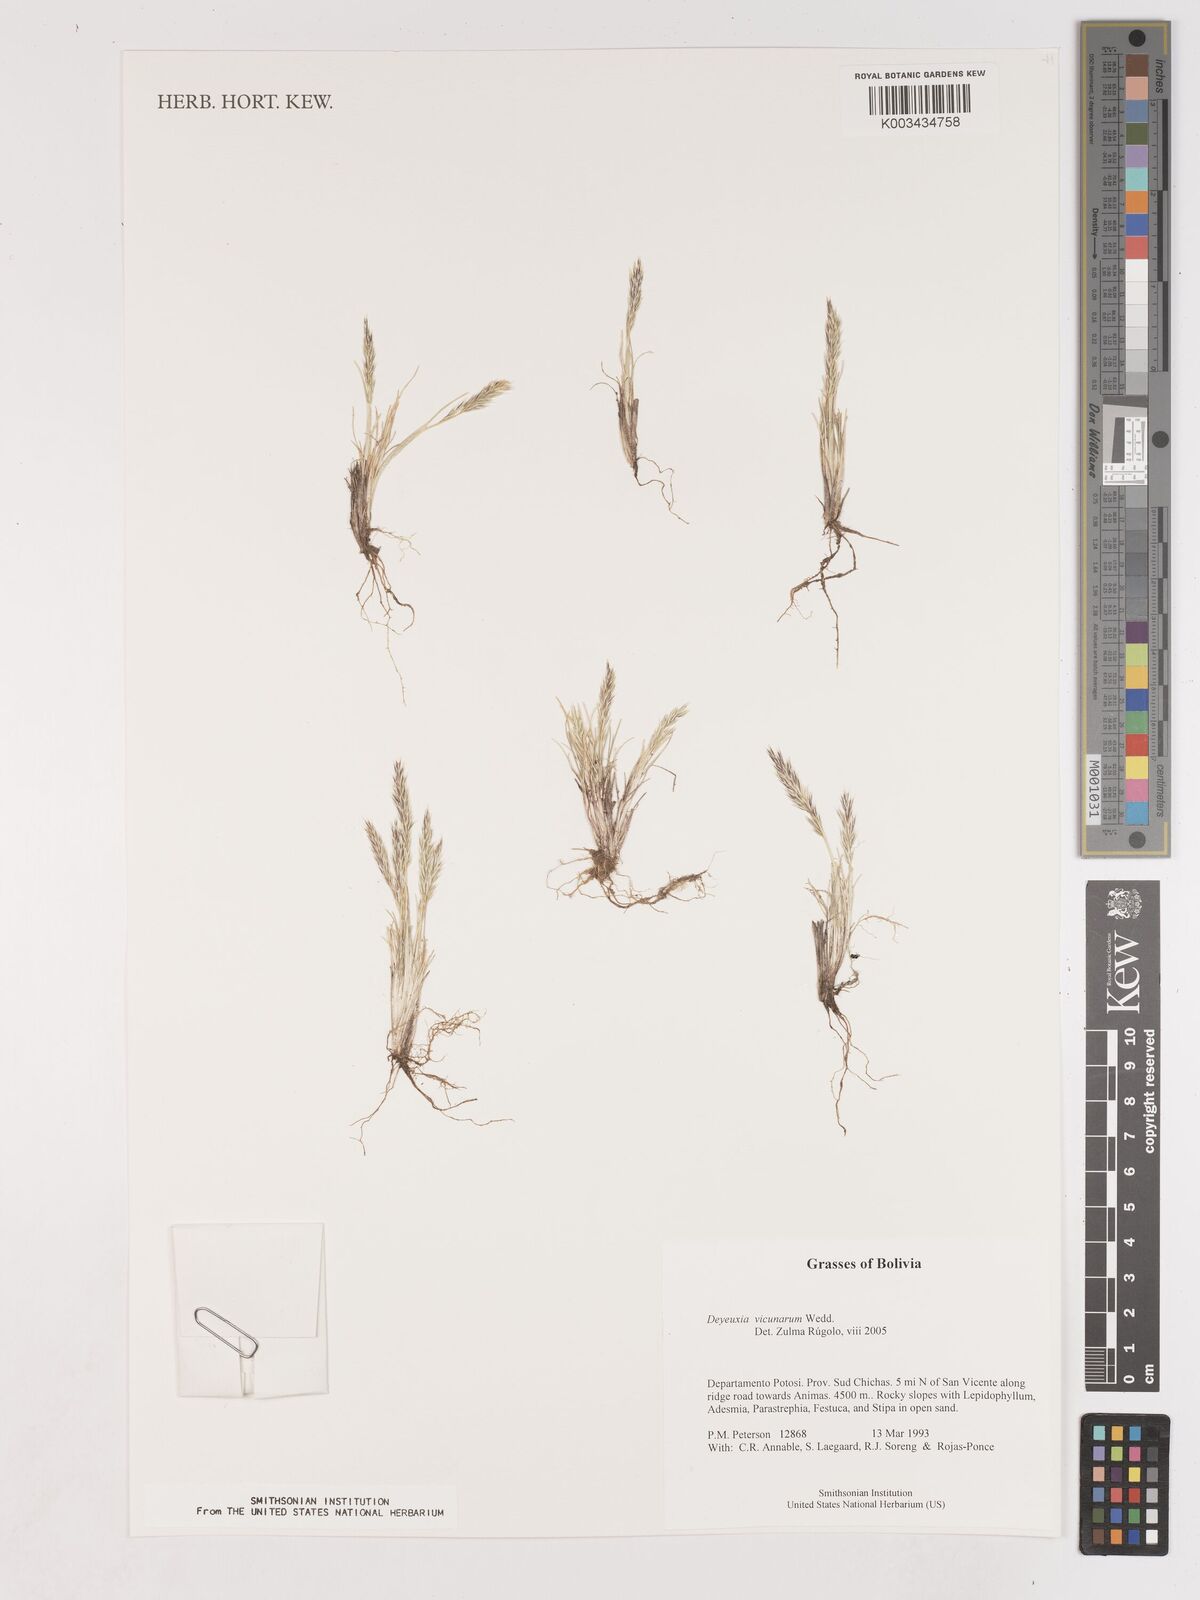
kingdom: Plantae
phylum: Tracheophyta
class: Liliopsida
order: Poales
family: Poaceae
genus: Cinnagrostis
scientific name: Cinnagrostis vicunarum
